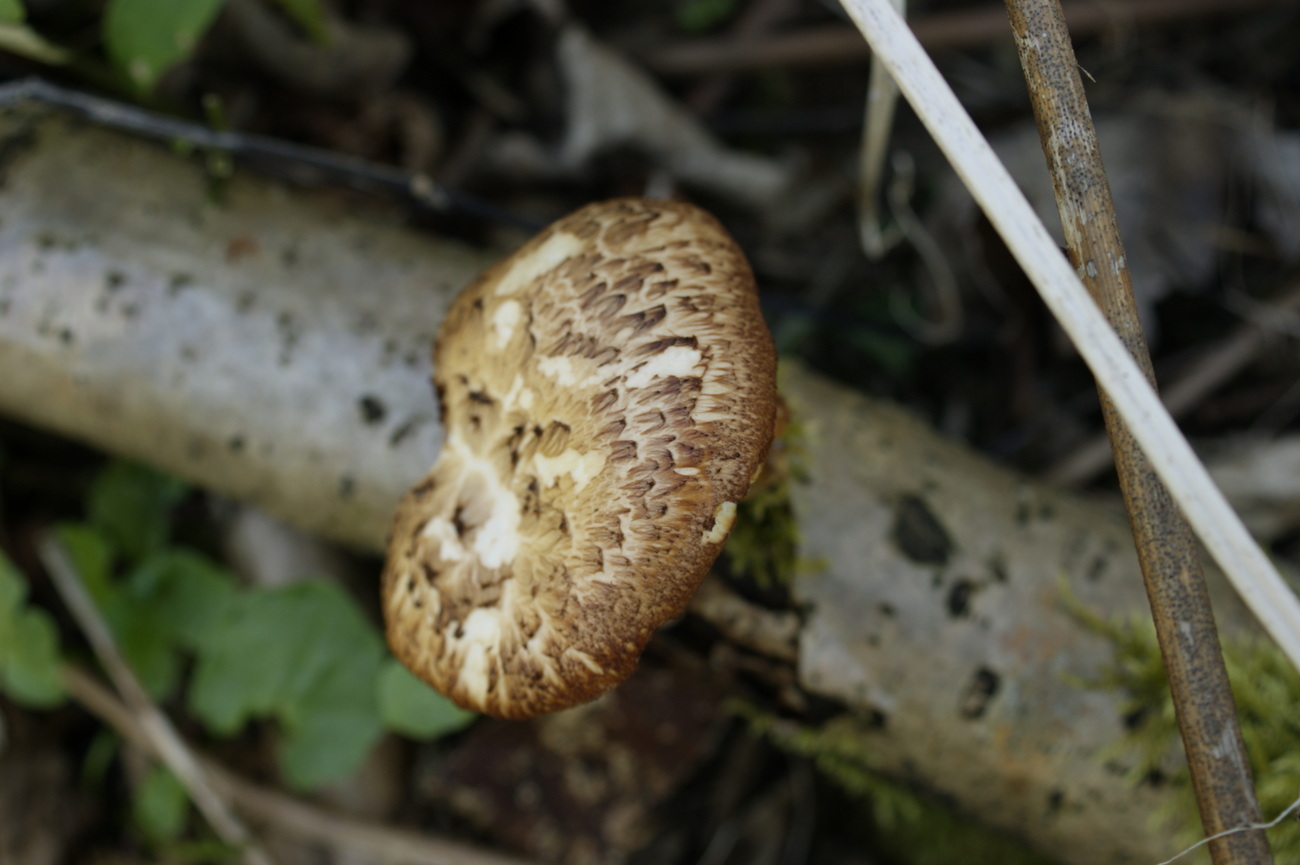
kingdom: Fungi
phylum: Basidiomycota
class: Agaricomycetes
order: Polyporales
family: Polyporaceae
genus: Polyporus
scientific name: Polyporus tuberaster
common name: knoldet stilkporesvamp
